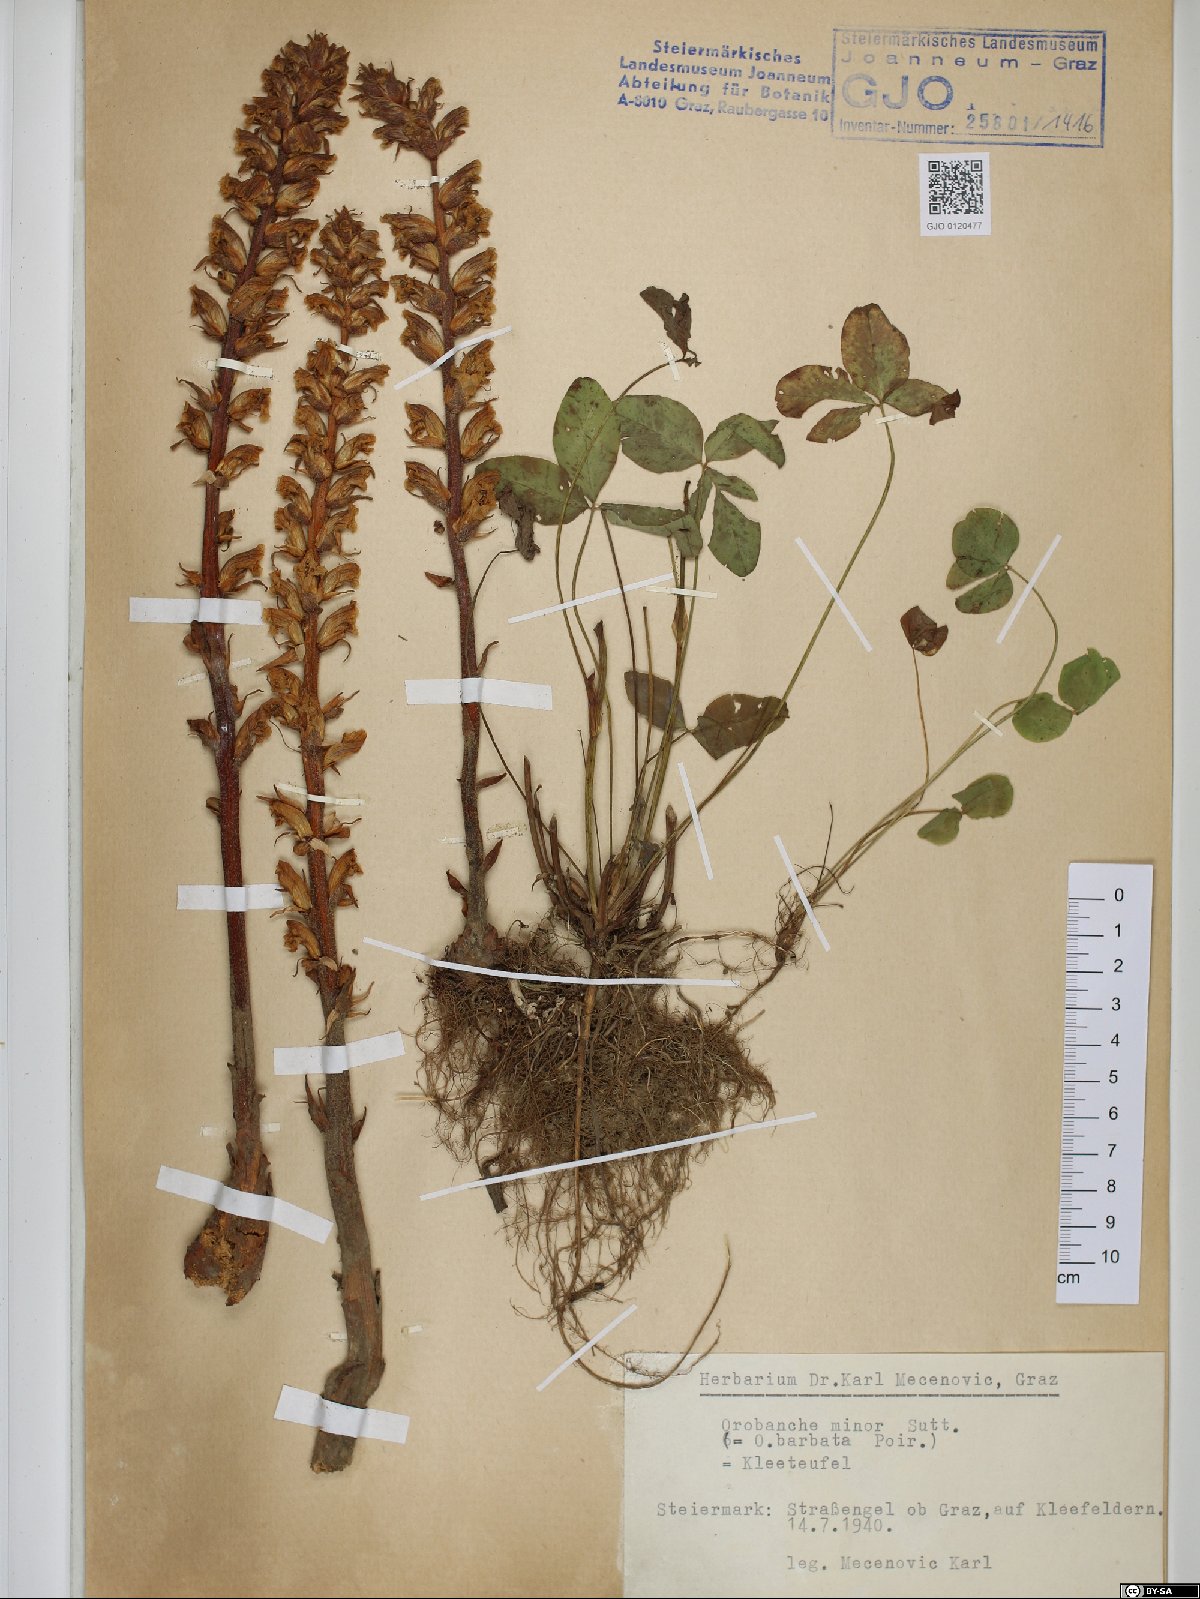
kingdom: Plantae
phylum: Tracheophyta
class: Magnoliopsida
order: Lamiales
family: Orobanchaceae
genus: Orobanche
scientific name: Orobanche minor
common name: Common broomrape
